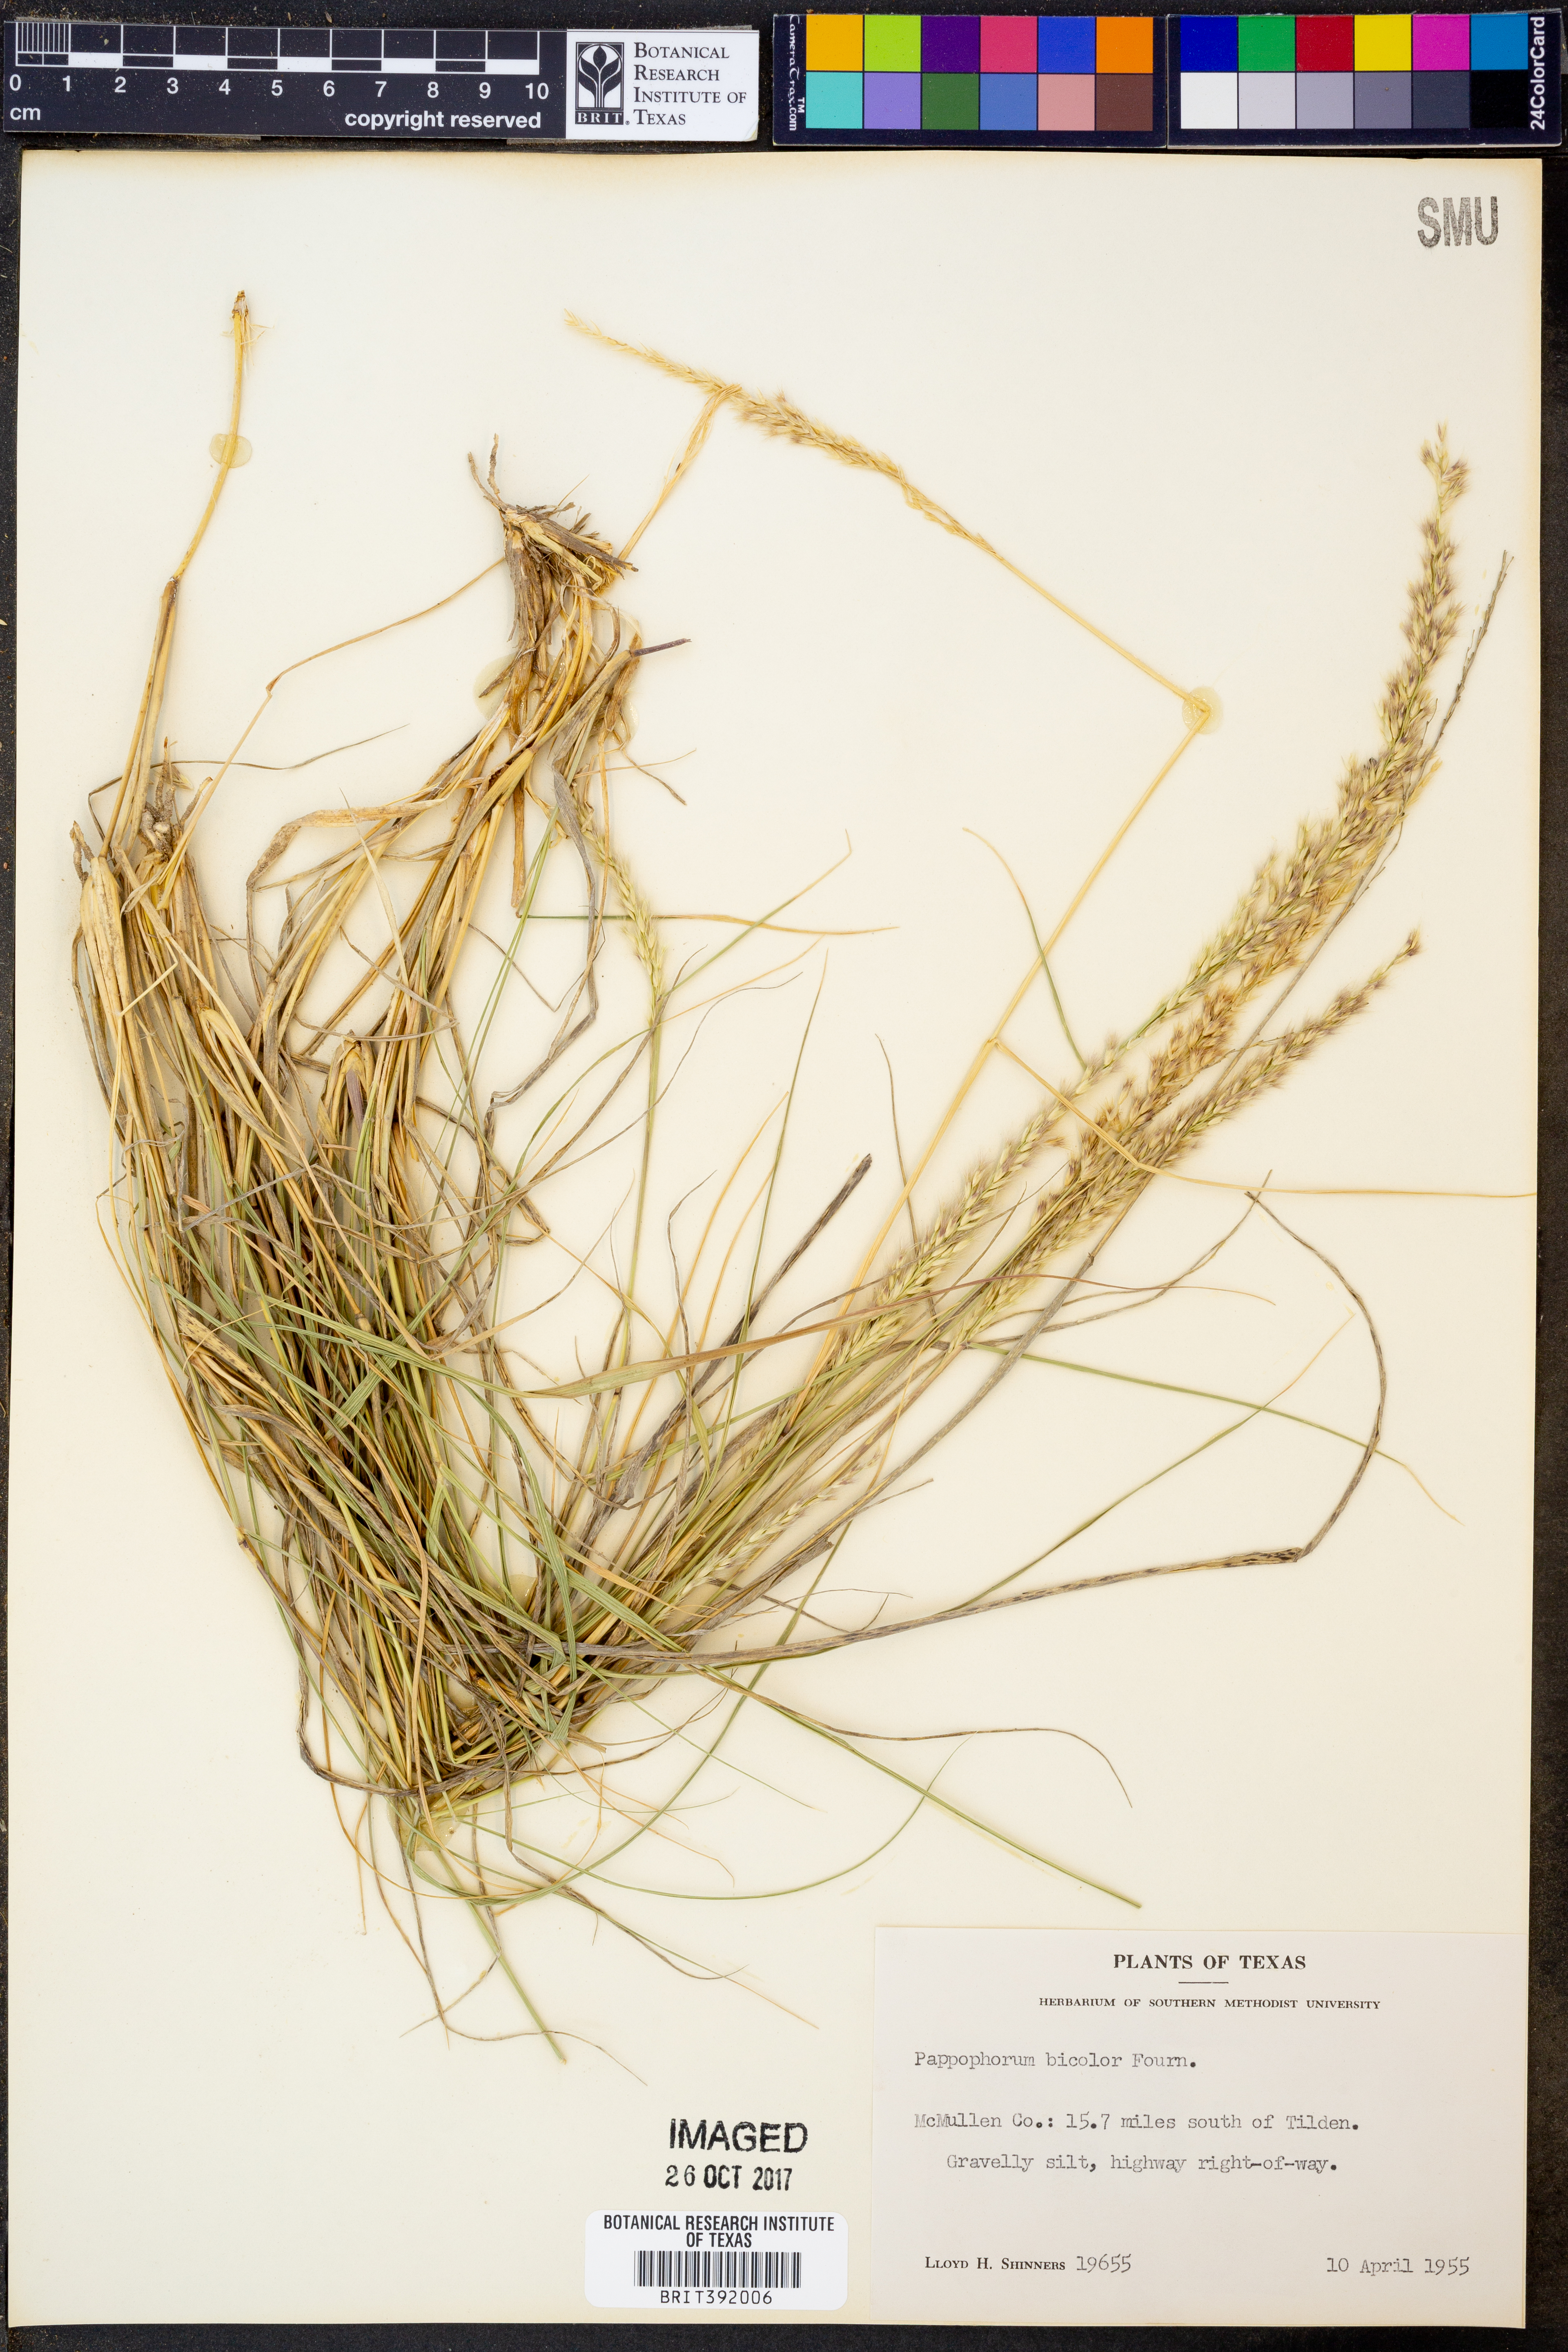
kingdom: Plantae
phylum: Tracheophyta
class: Liliopsida
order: Poales
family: Poaceae
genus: Pappophorum
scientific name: Pappophorum bicolor
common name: Pink pappus grass
